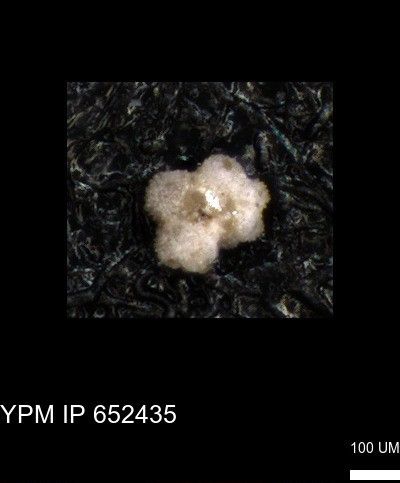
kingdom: Chromista
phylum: Foraminifera
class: Globothalamea
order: Rotaliida
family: Rugoglobigerinidae
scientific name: Rugoglobigerinidae
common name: forams
